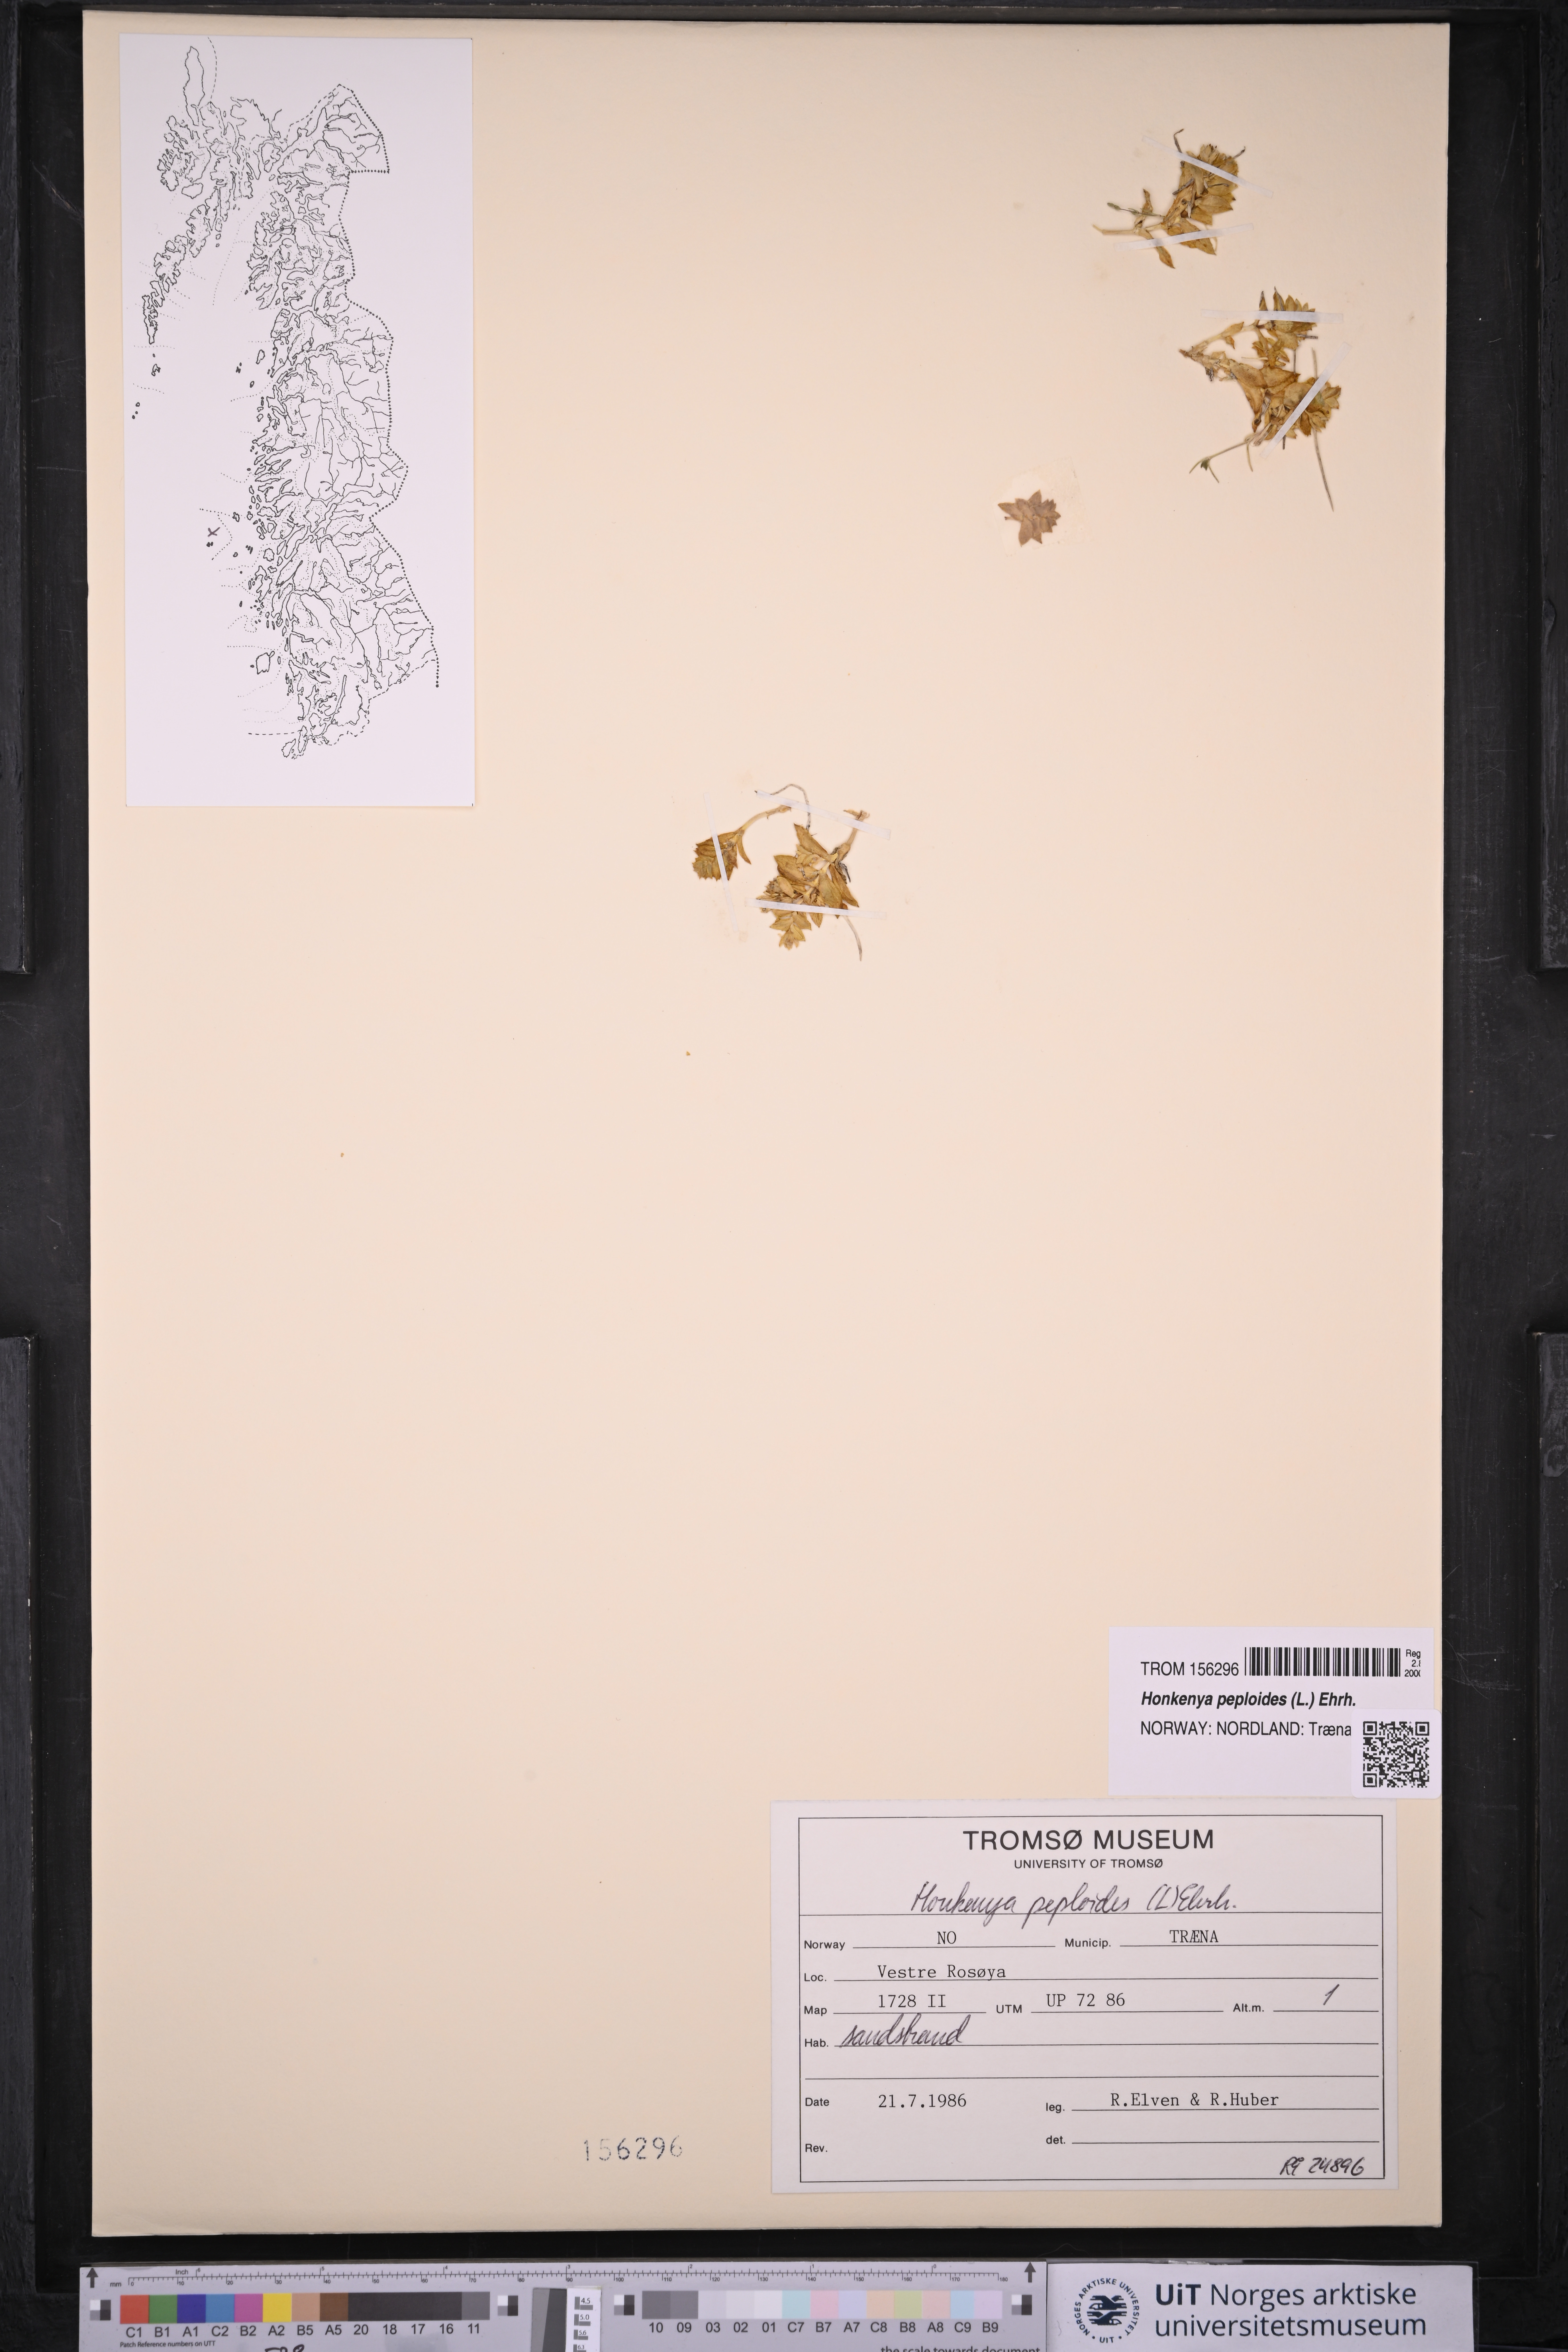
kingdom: Plantae
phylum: Tracheophyta
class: Magnoliopsida
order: Caryophyllales
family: Caryophyllaceae
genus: Honckenya
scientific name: Honckenya peploides
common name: Sea sandwort
